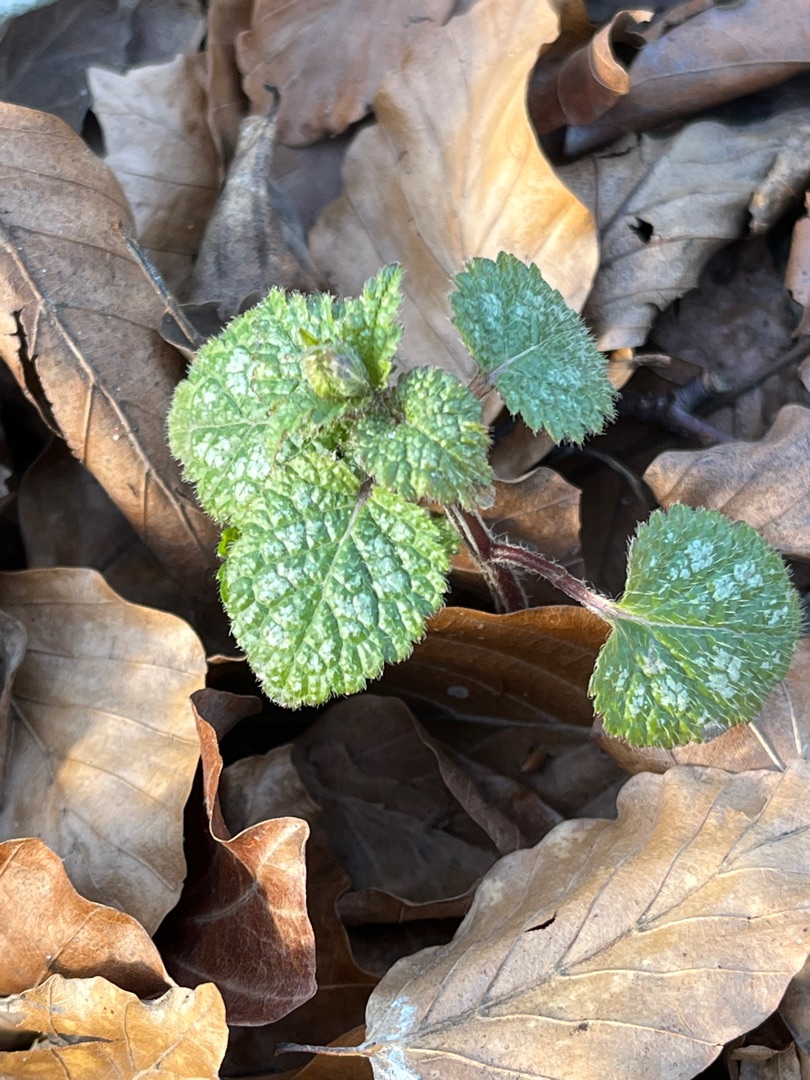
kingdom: Plantae
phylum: Tracheophyta
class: Magnoliopsida
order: Lamiales
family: Lamiaceae
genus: Lamium
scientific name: Lamium galeobdolon
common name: Guldnælde
